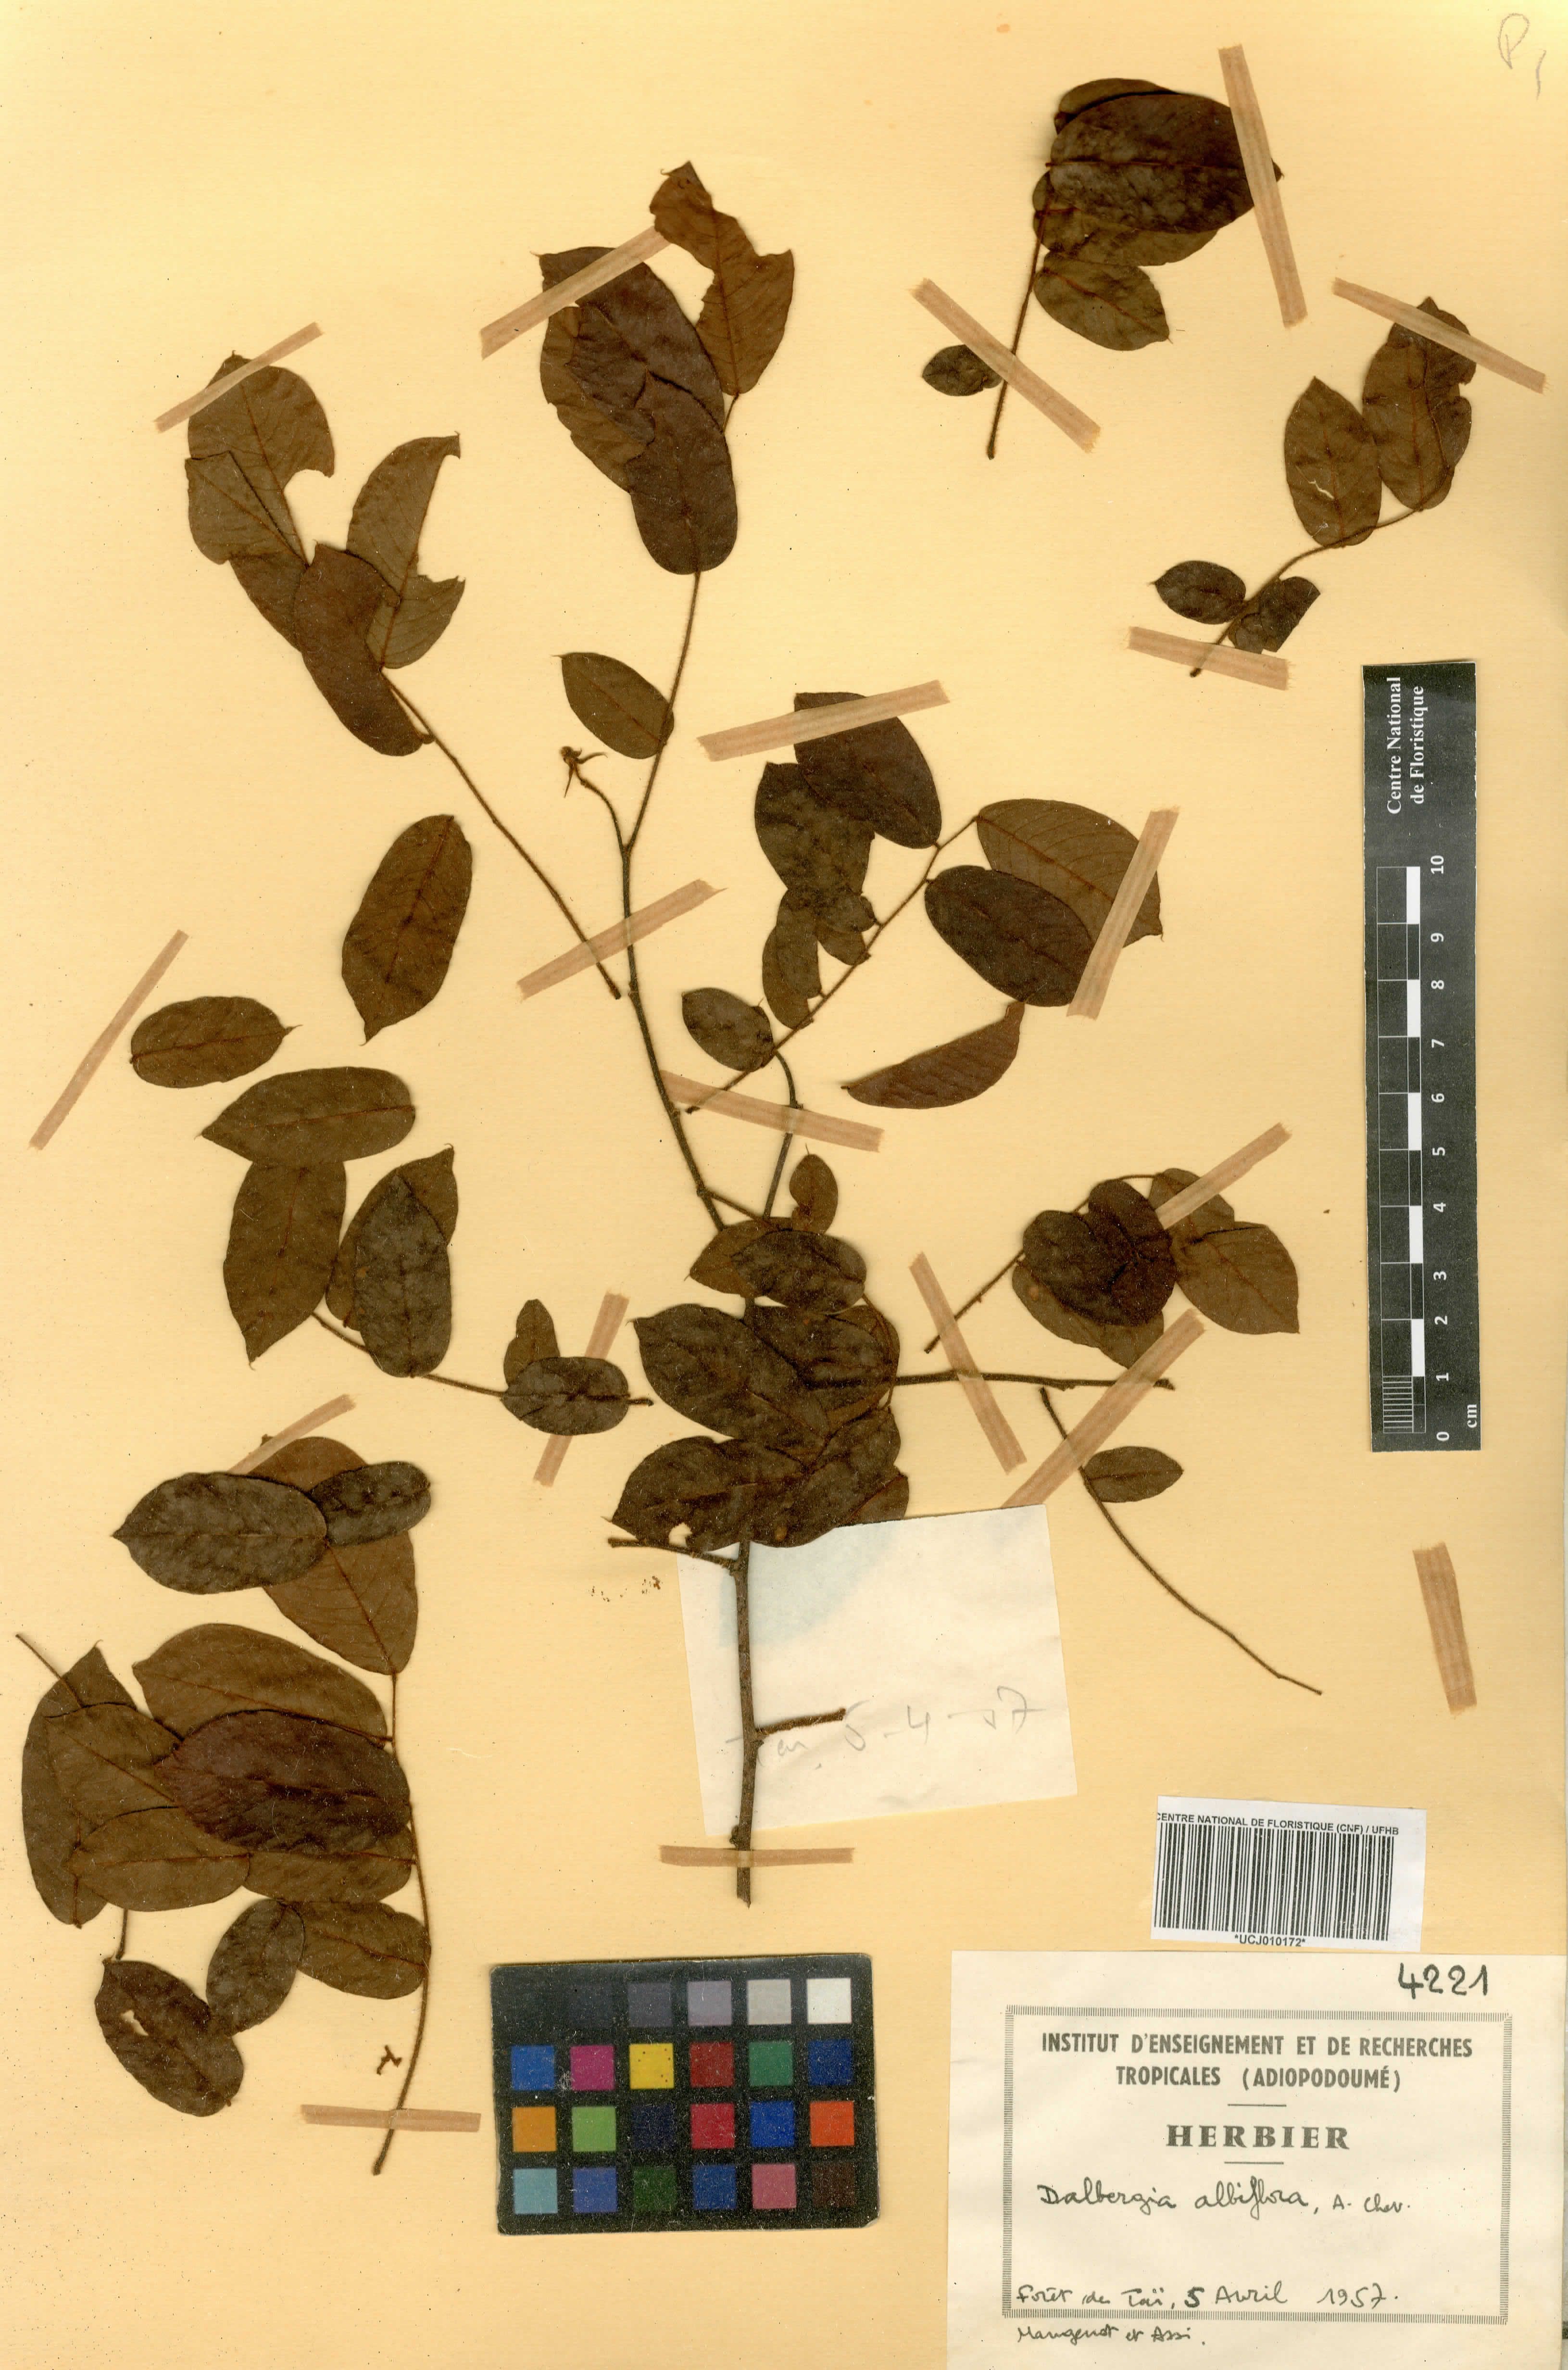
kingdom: Plantae
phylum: Tracheophyta
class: Magnoliopsida
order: Fabales
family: Fabaceae
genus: Dalbergia
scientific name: Dalbergia albiflora
